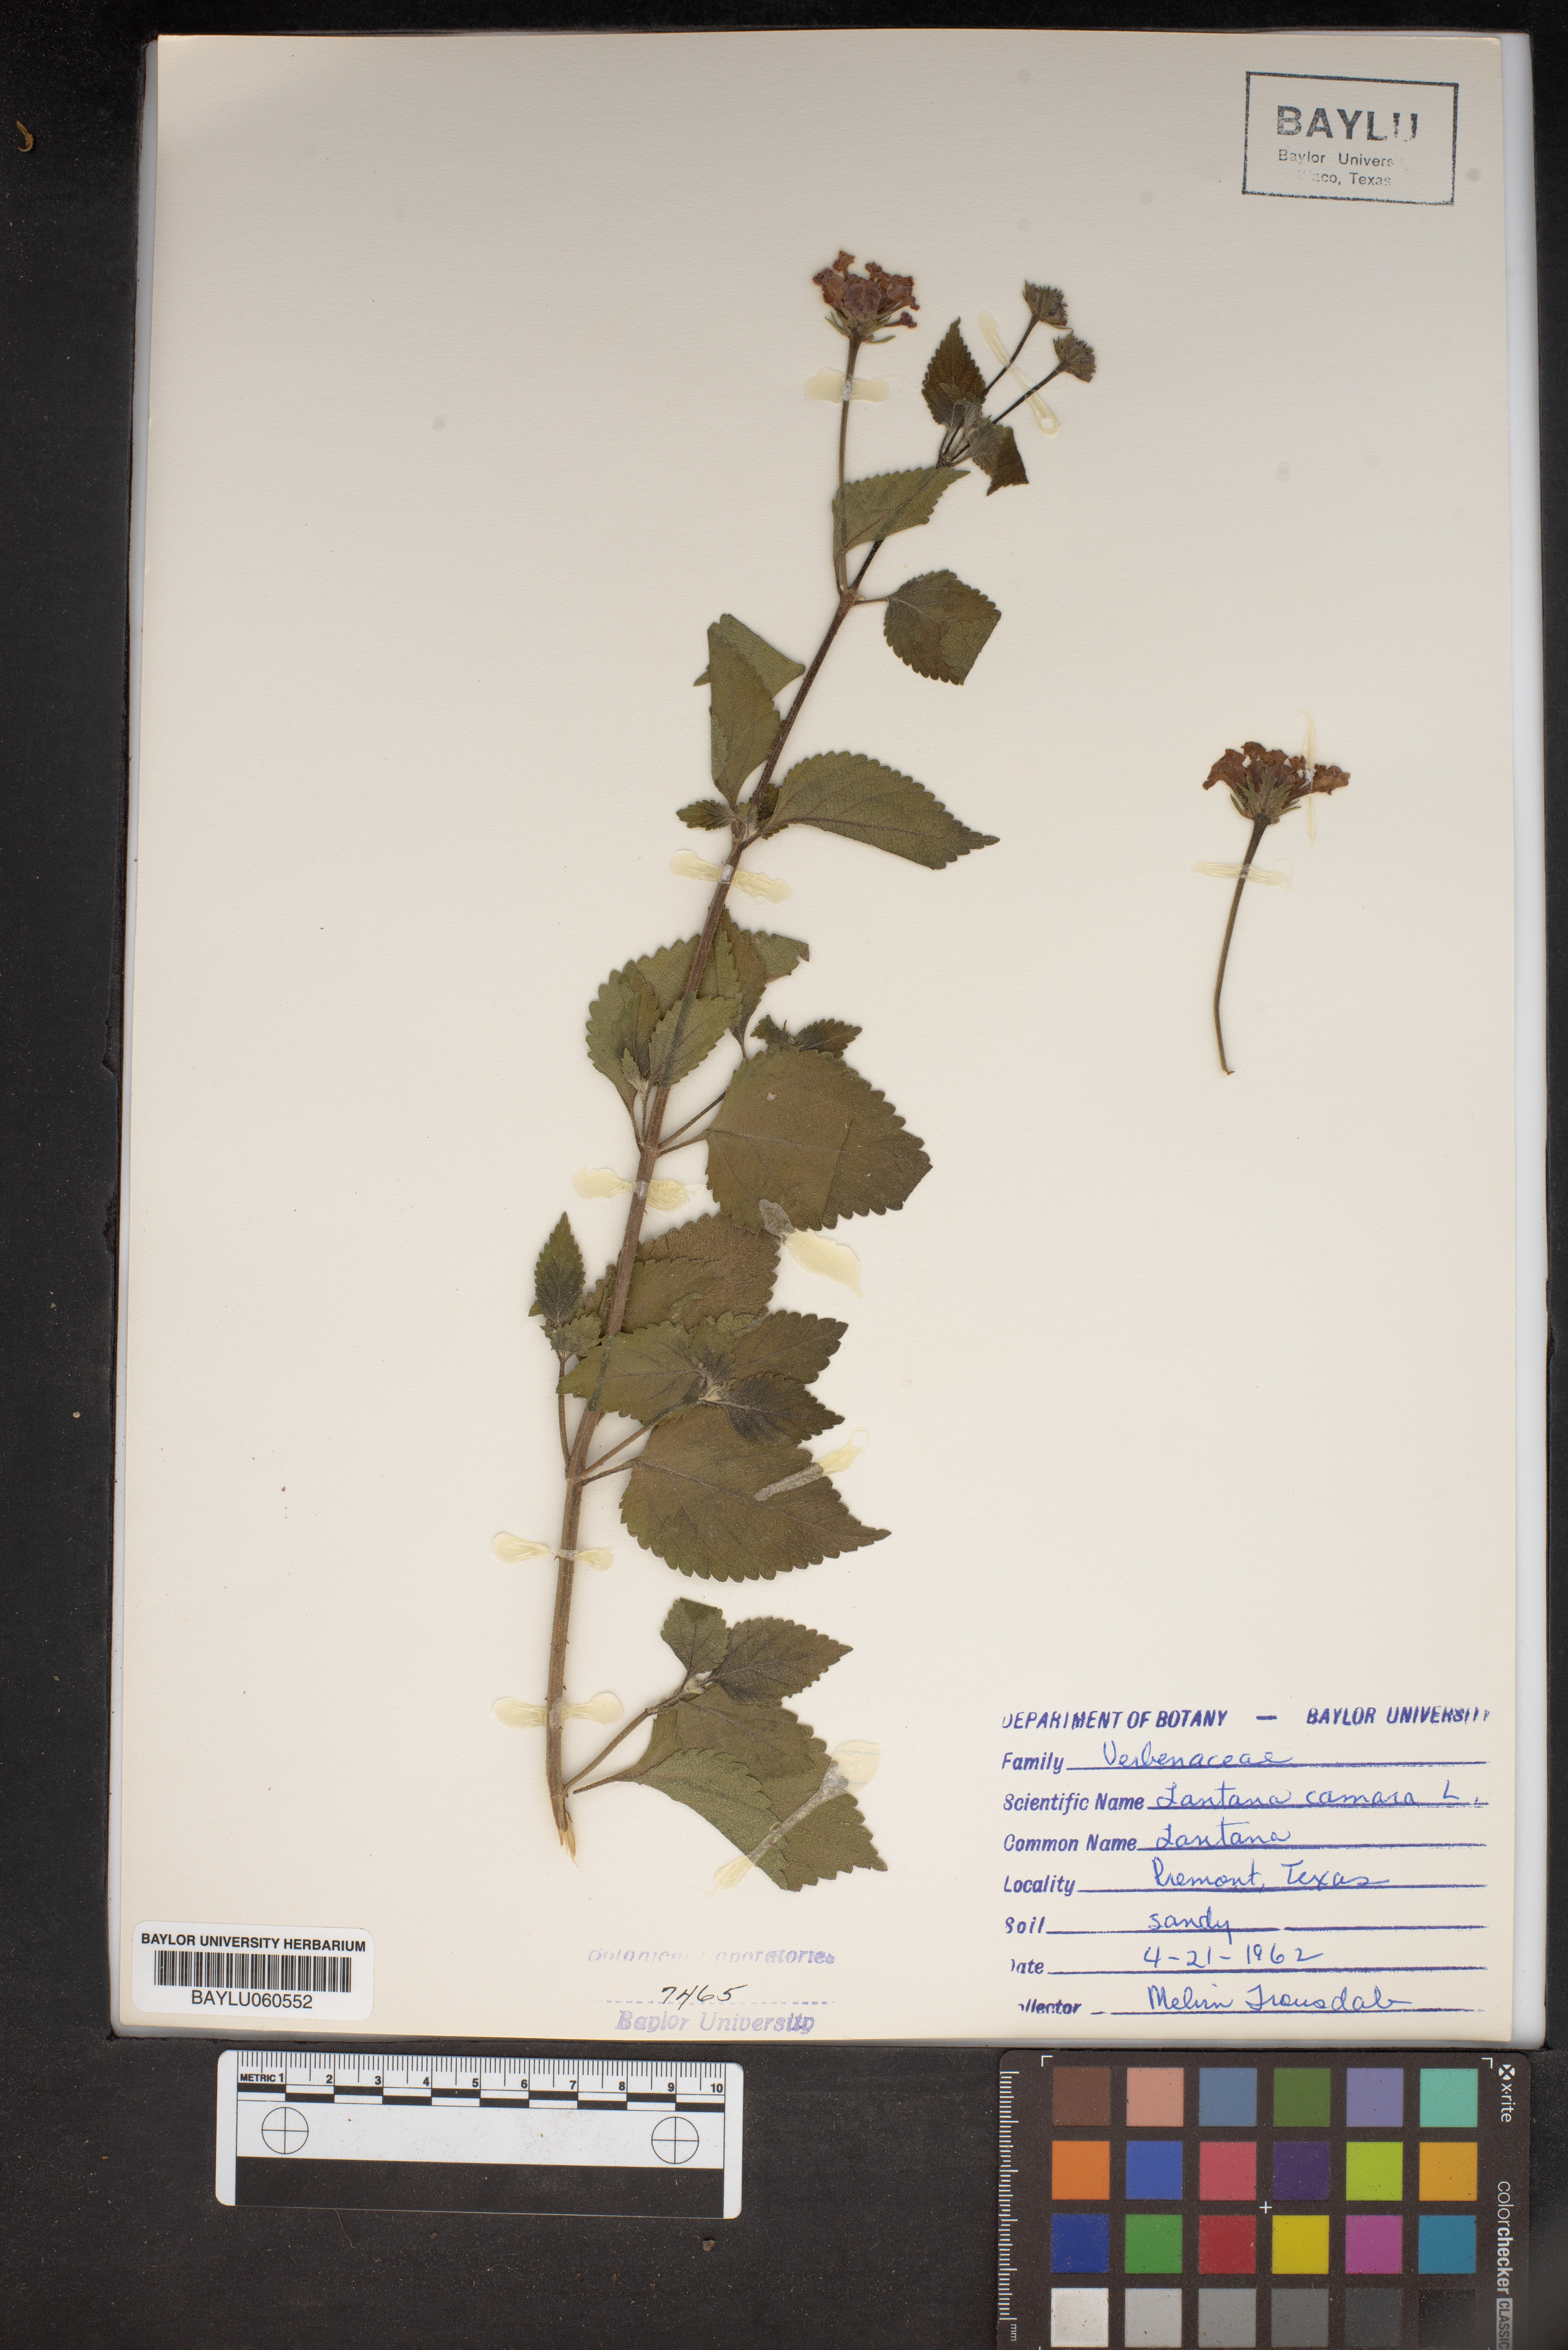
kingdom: Plantae
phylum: Tracheophyta
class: Magnoliopsida
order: Lamiales
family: Verbenaceae
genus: Lantana
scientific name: Lantana camara
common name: Lantana
